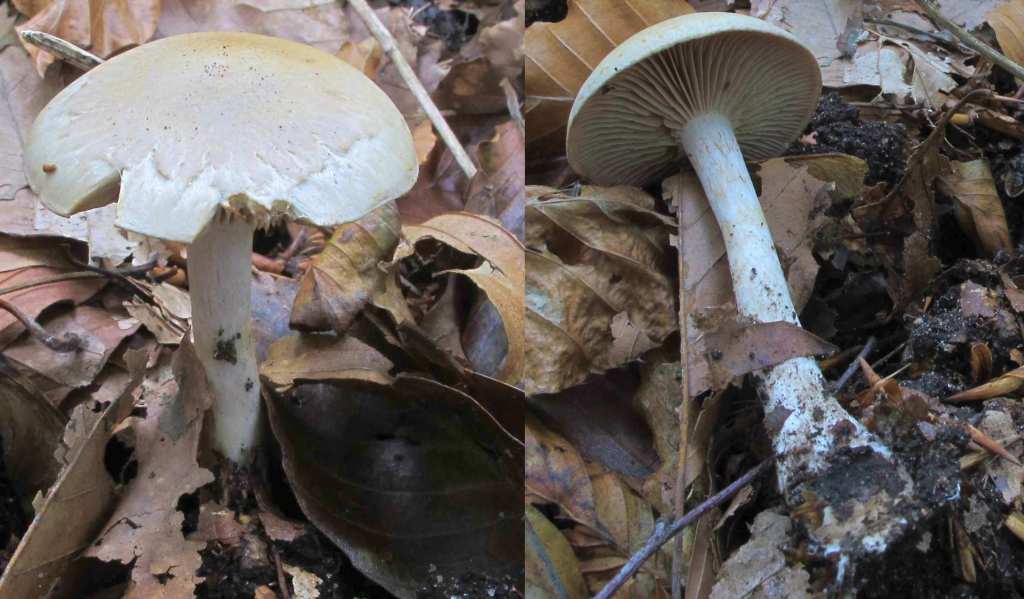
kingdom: Fungi
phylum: Basidiomycota
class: Agaricomycetes
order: Agaricales
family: Cortinariaceae
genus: Cortinarius
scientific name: Cortinarius anomalus
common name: Variable webcap
